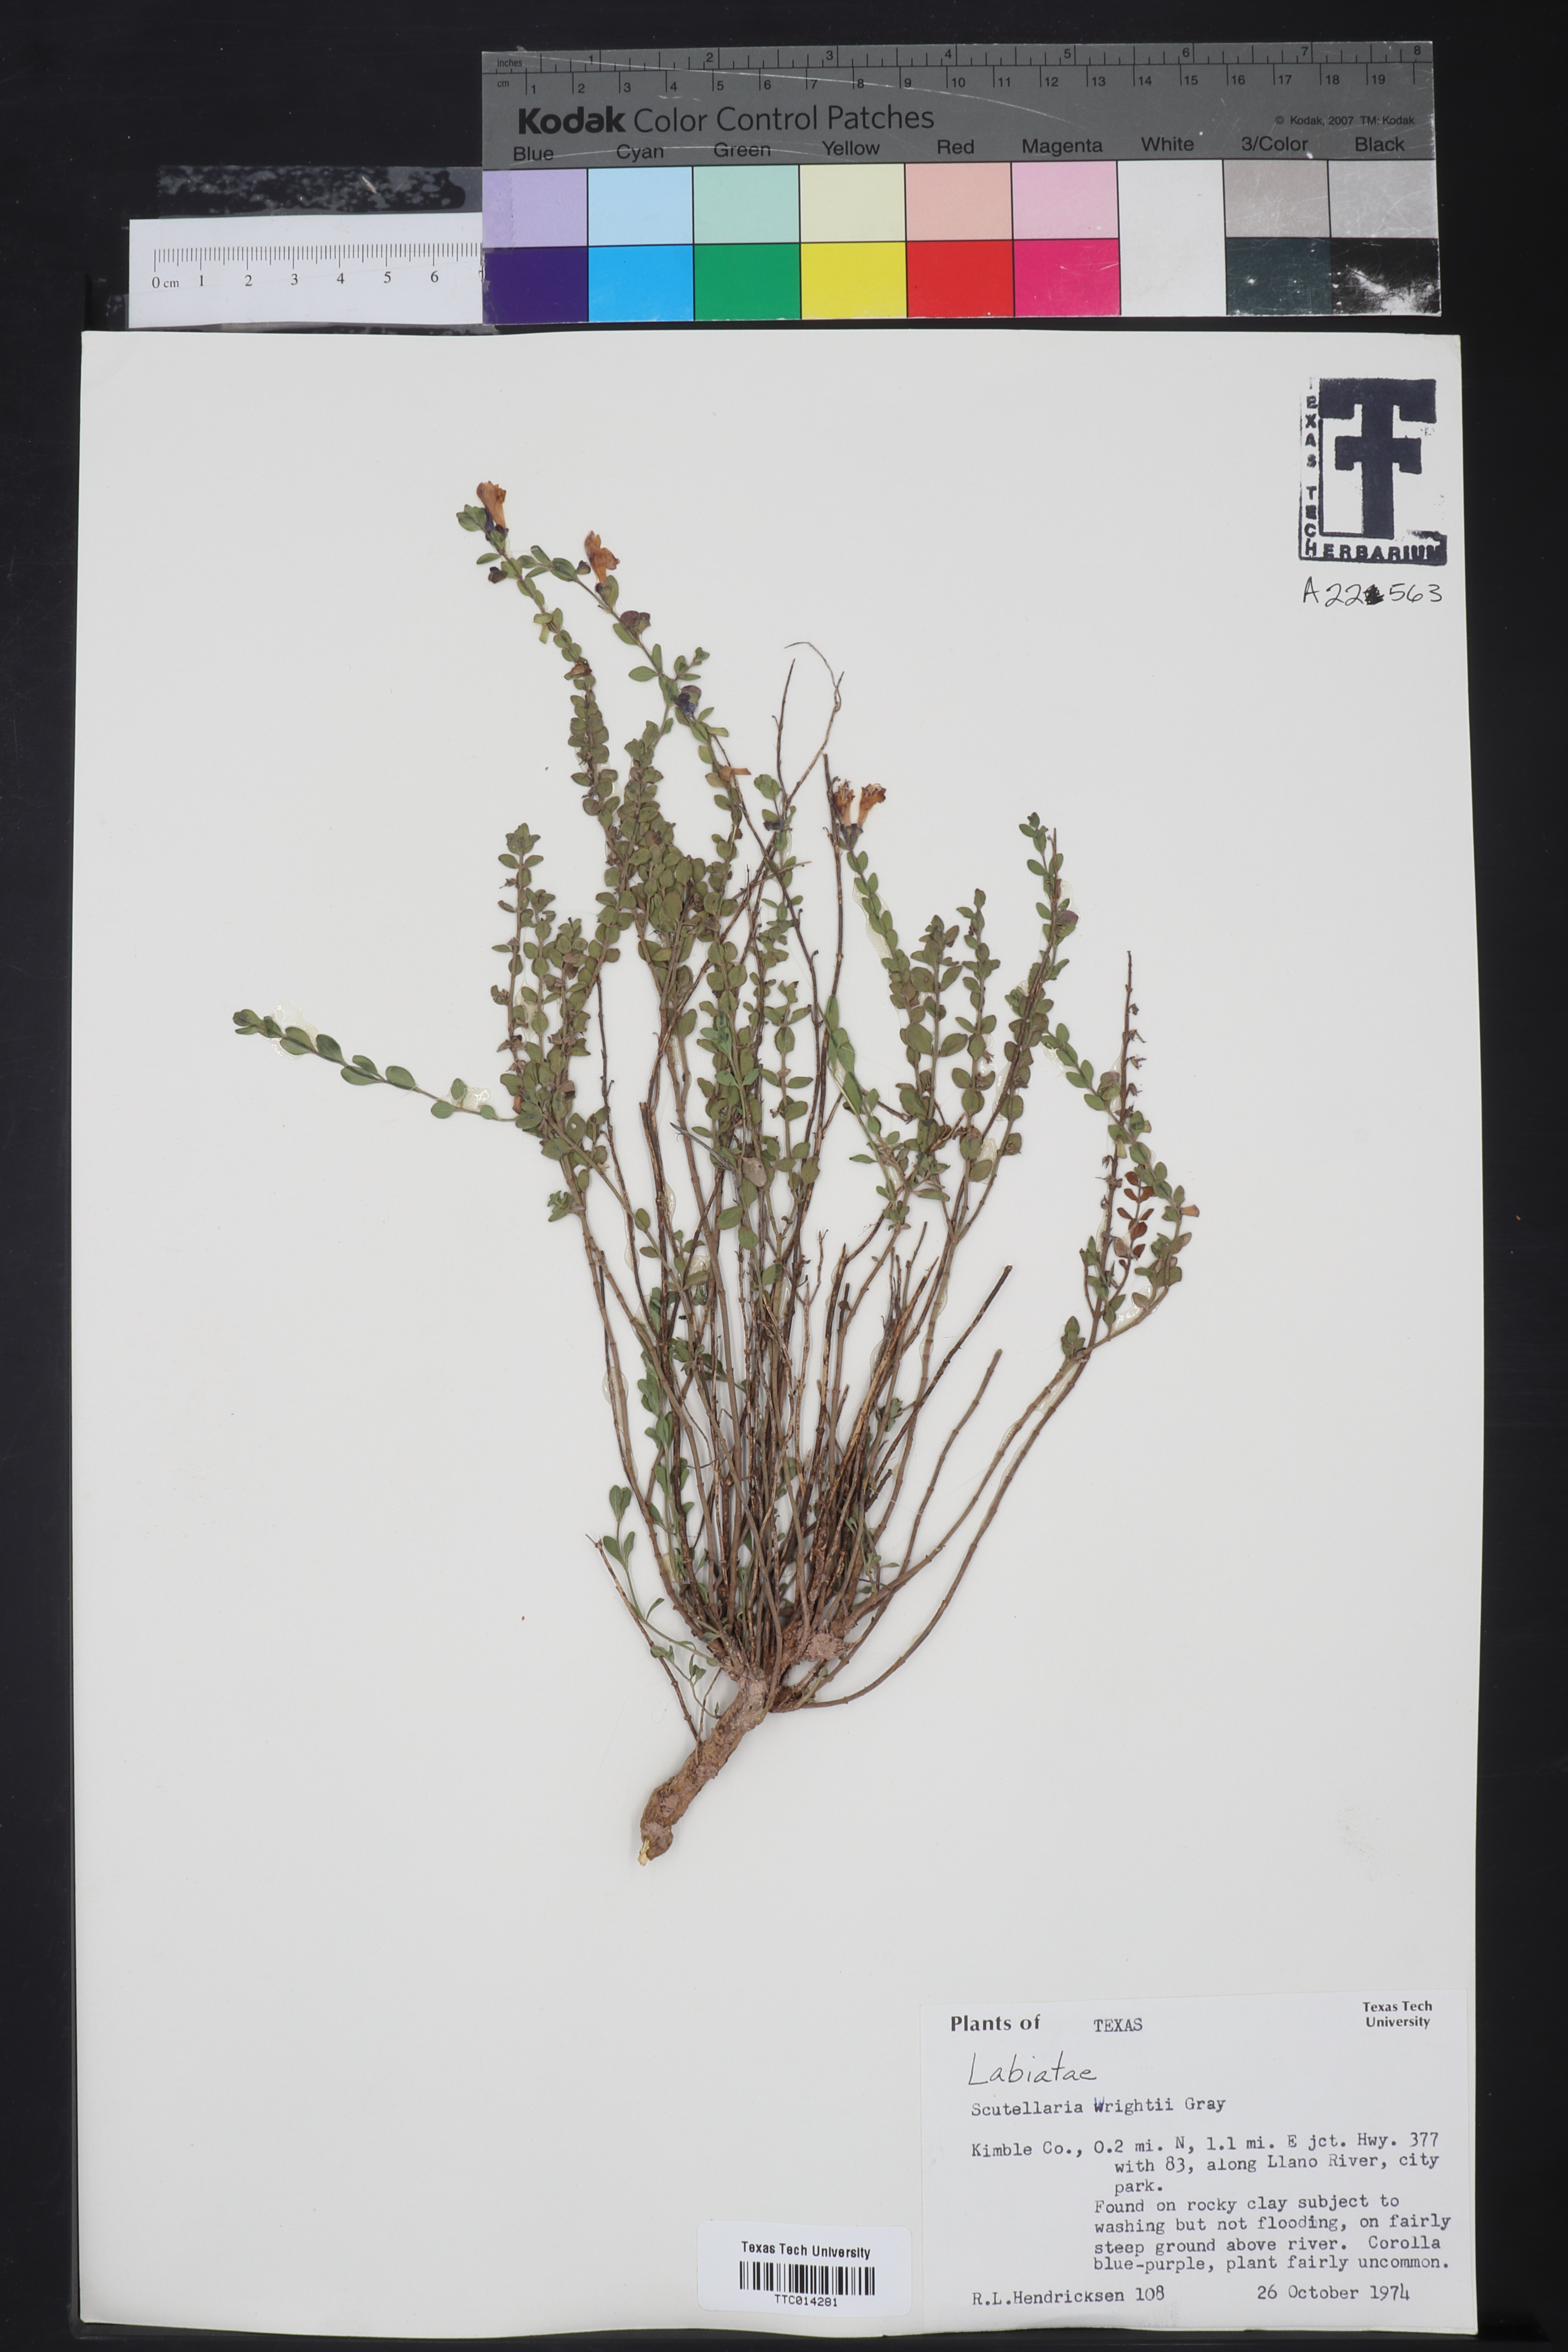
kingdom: Plantae
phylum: Tracheophyta
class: Magnoliopsida
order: Lamiales
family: Lamiaceae
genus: Scutellaria
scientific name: Scutellaria wrightii
